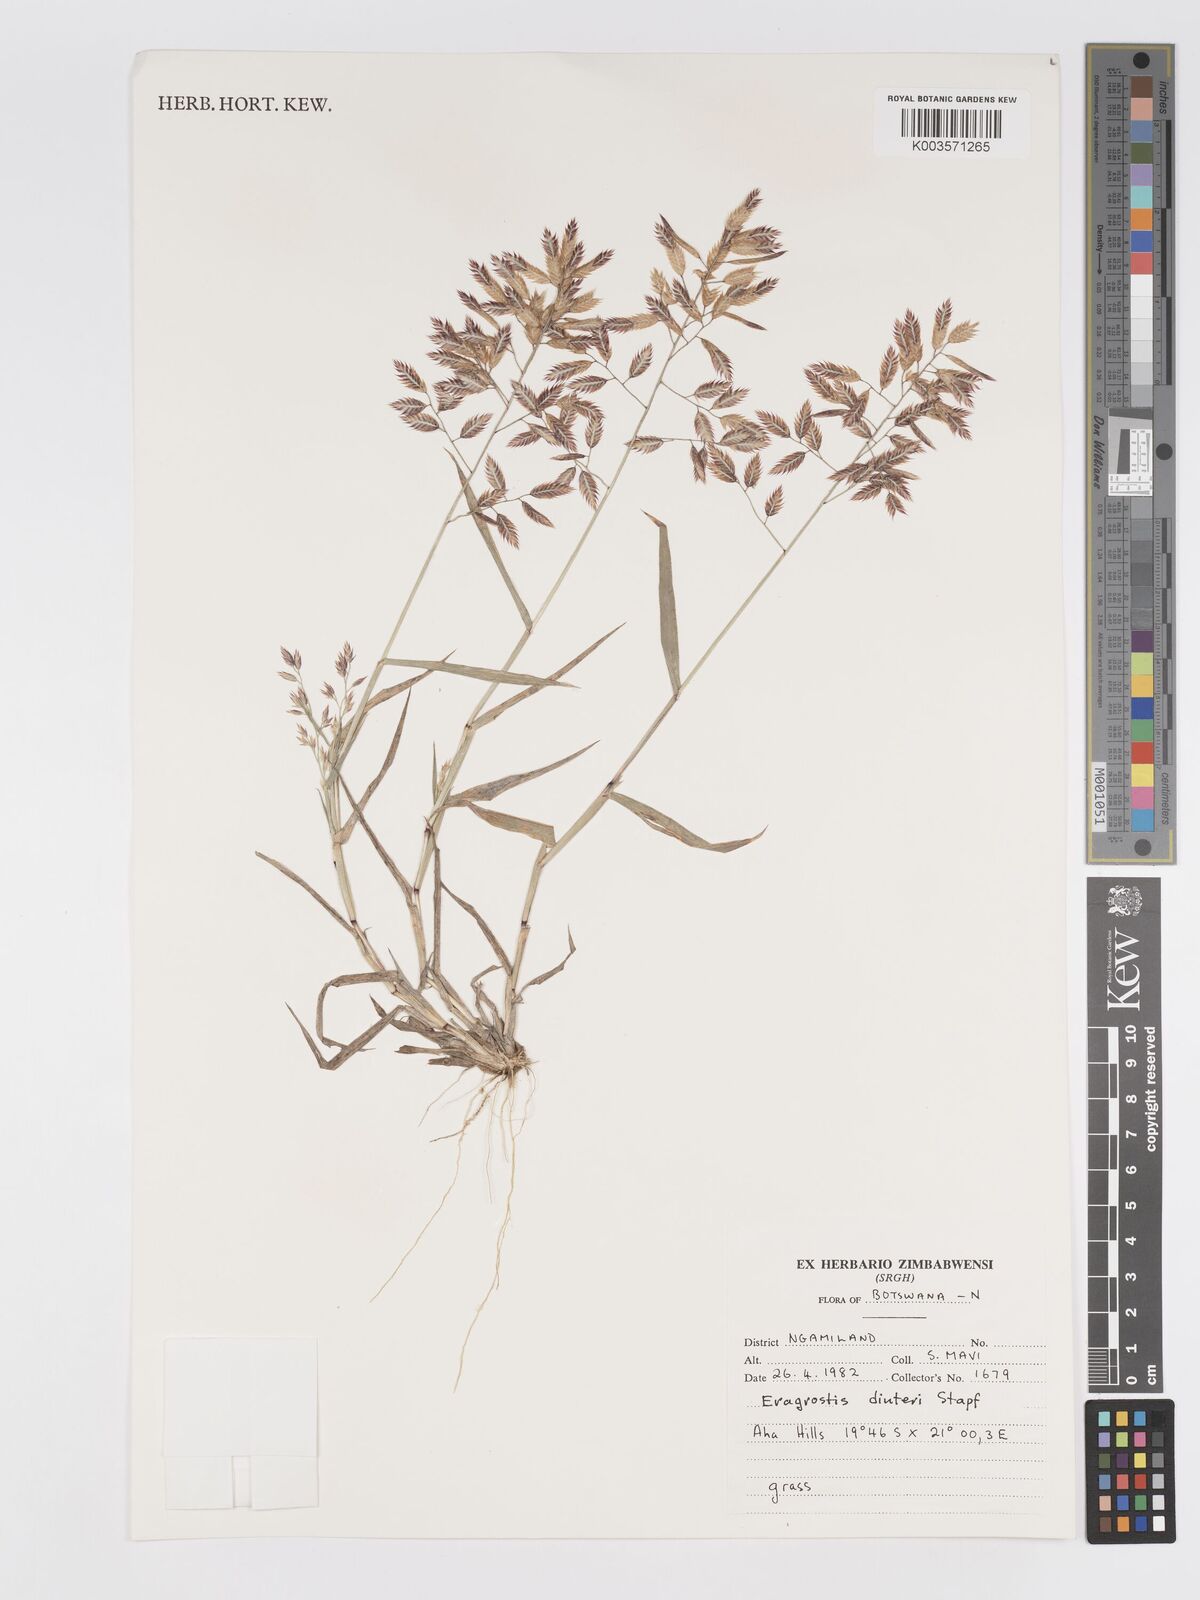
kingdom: Plantae
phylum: Tracheophyta
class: Liliopsida
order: Poales
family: Poaceae
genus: Eragrostis
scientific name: Eragrostis dinteri
